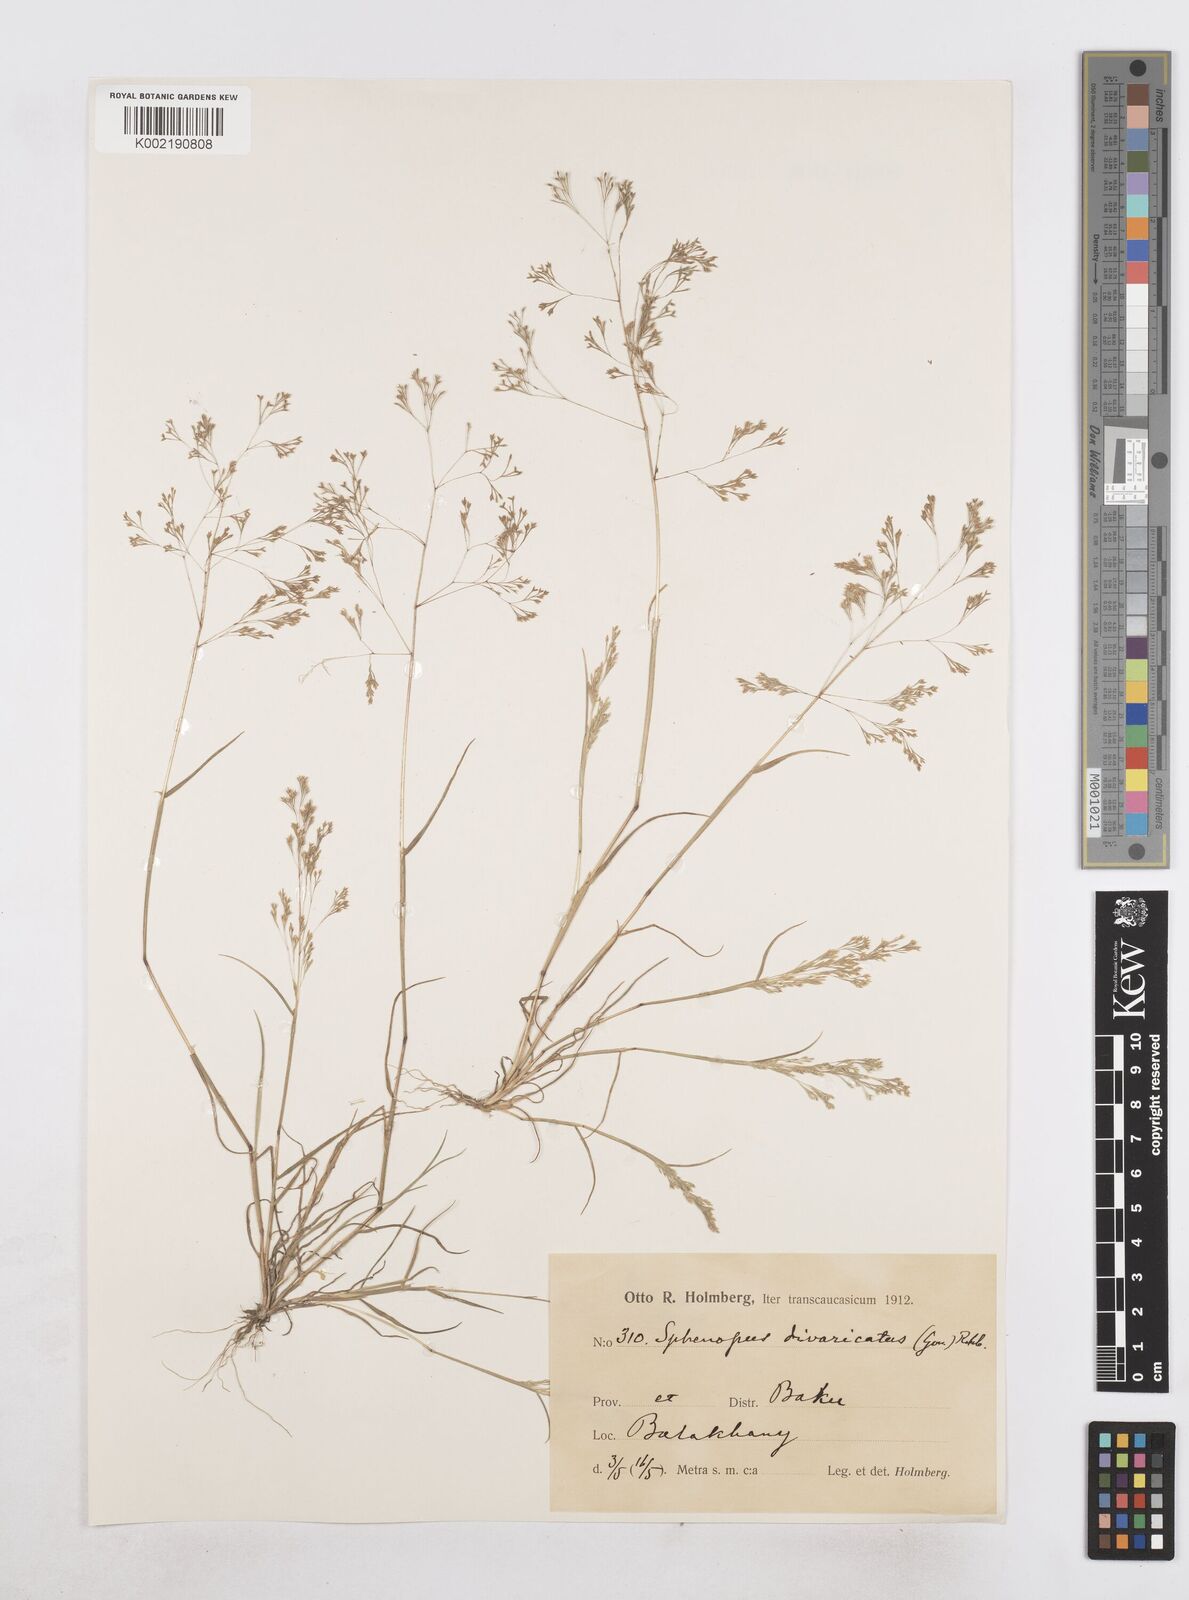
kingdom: Plantae
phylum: Tracheophyta
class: Liliopsida
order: Poales
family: Poaceae
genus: Sphenopus
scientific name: Sphenopus divaricatus
